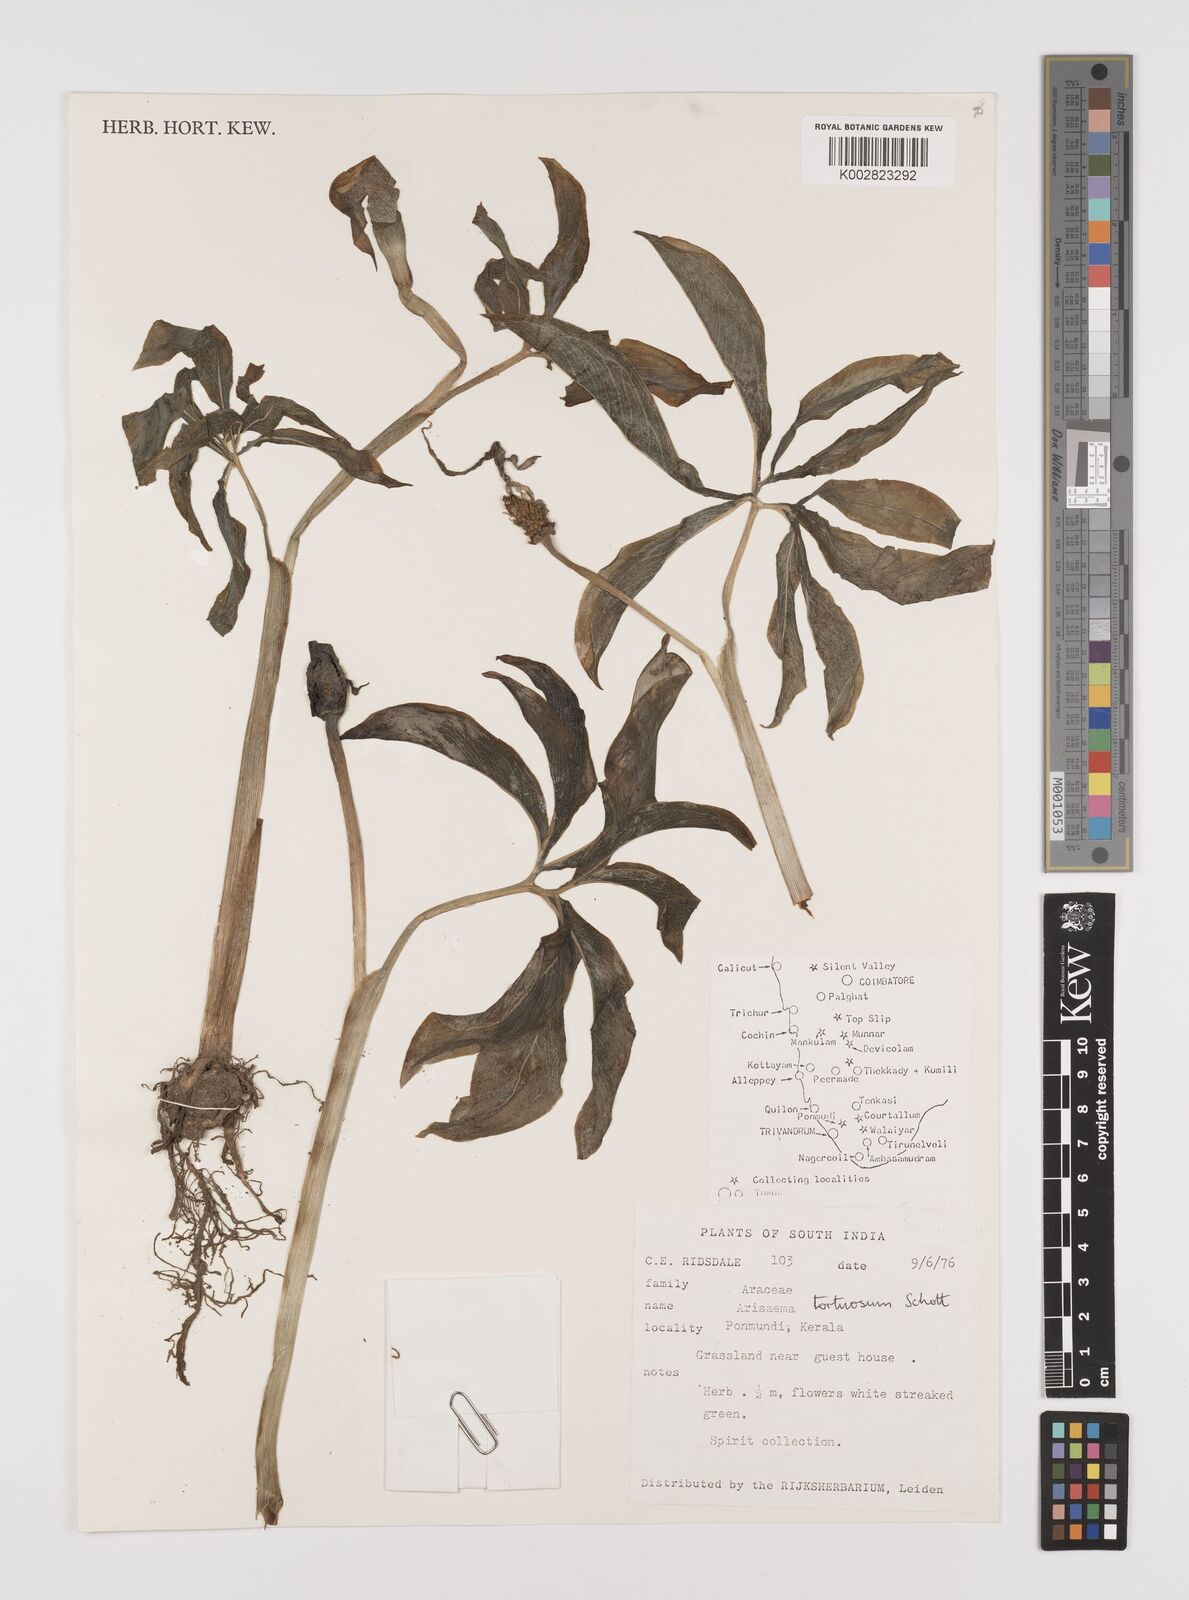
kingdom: Plantae
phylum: Tracheophyta
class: Liliopsida
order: Alismatales
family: Araceae
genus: Arisaema
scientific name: Arisaema tortuosum
